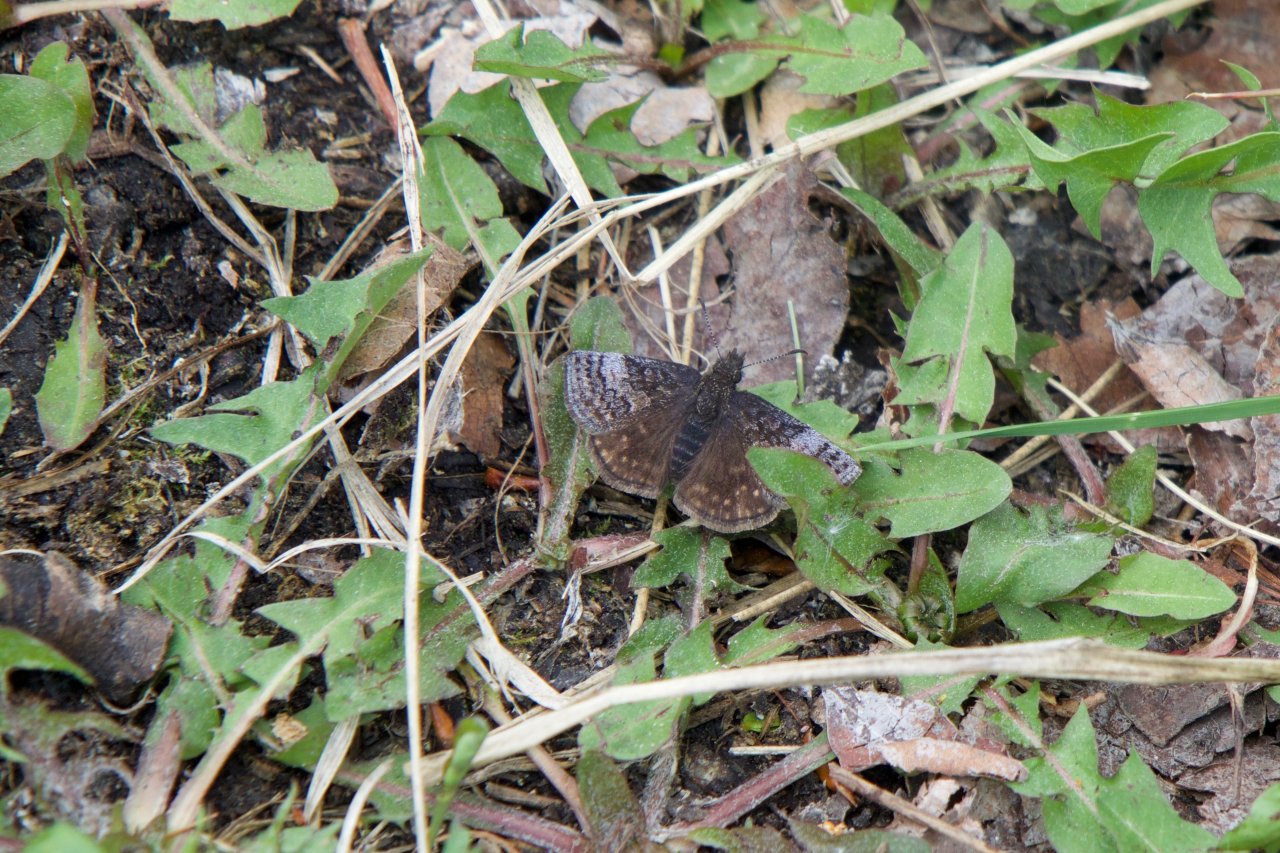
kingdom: Animalia
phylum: Arthropoda
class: Insecta
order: Lepidoptera
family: Hesperiidae
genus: Erynnis
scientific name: Erynnis icelus
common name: Dreamy Duskywing
